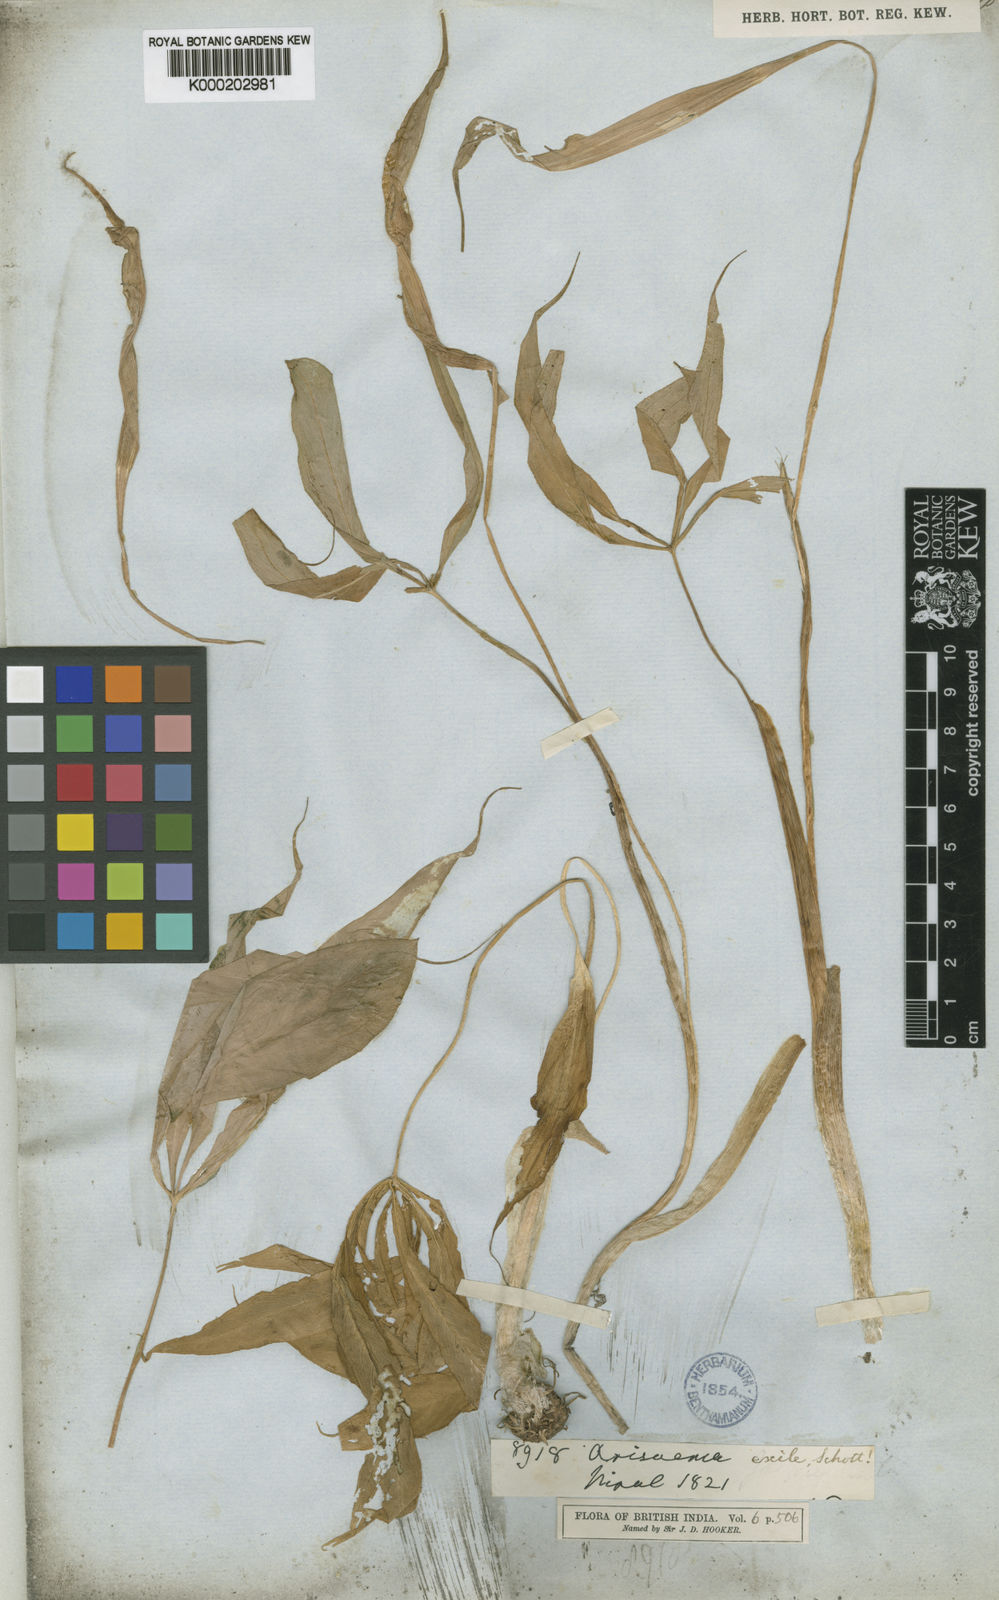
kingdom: Plantae
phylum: Tracheophyta
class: Liliopsida
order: Alismatales
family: Araceae
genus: Arisaema
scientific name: Arisaema jacquemontii
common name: Jacquemont's cobra-lily
